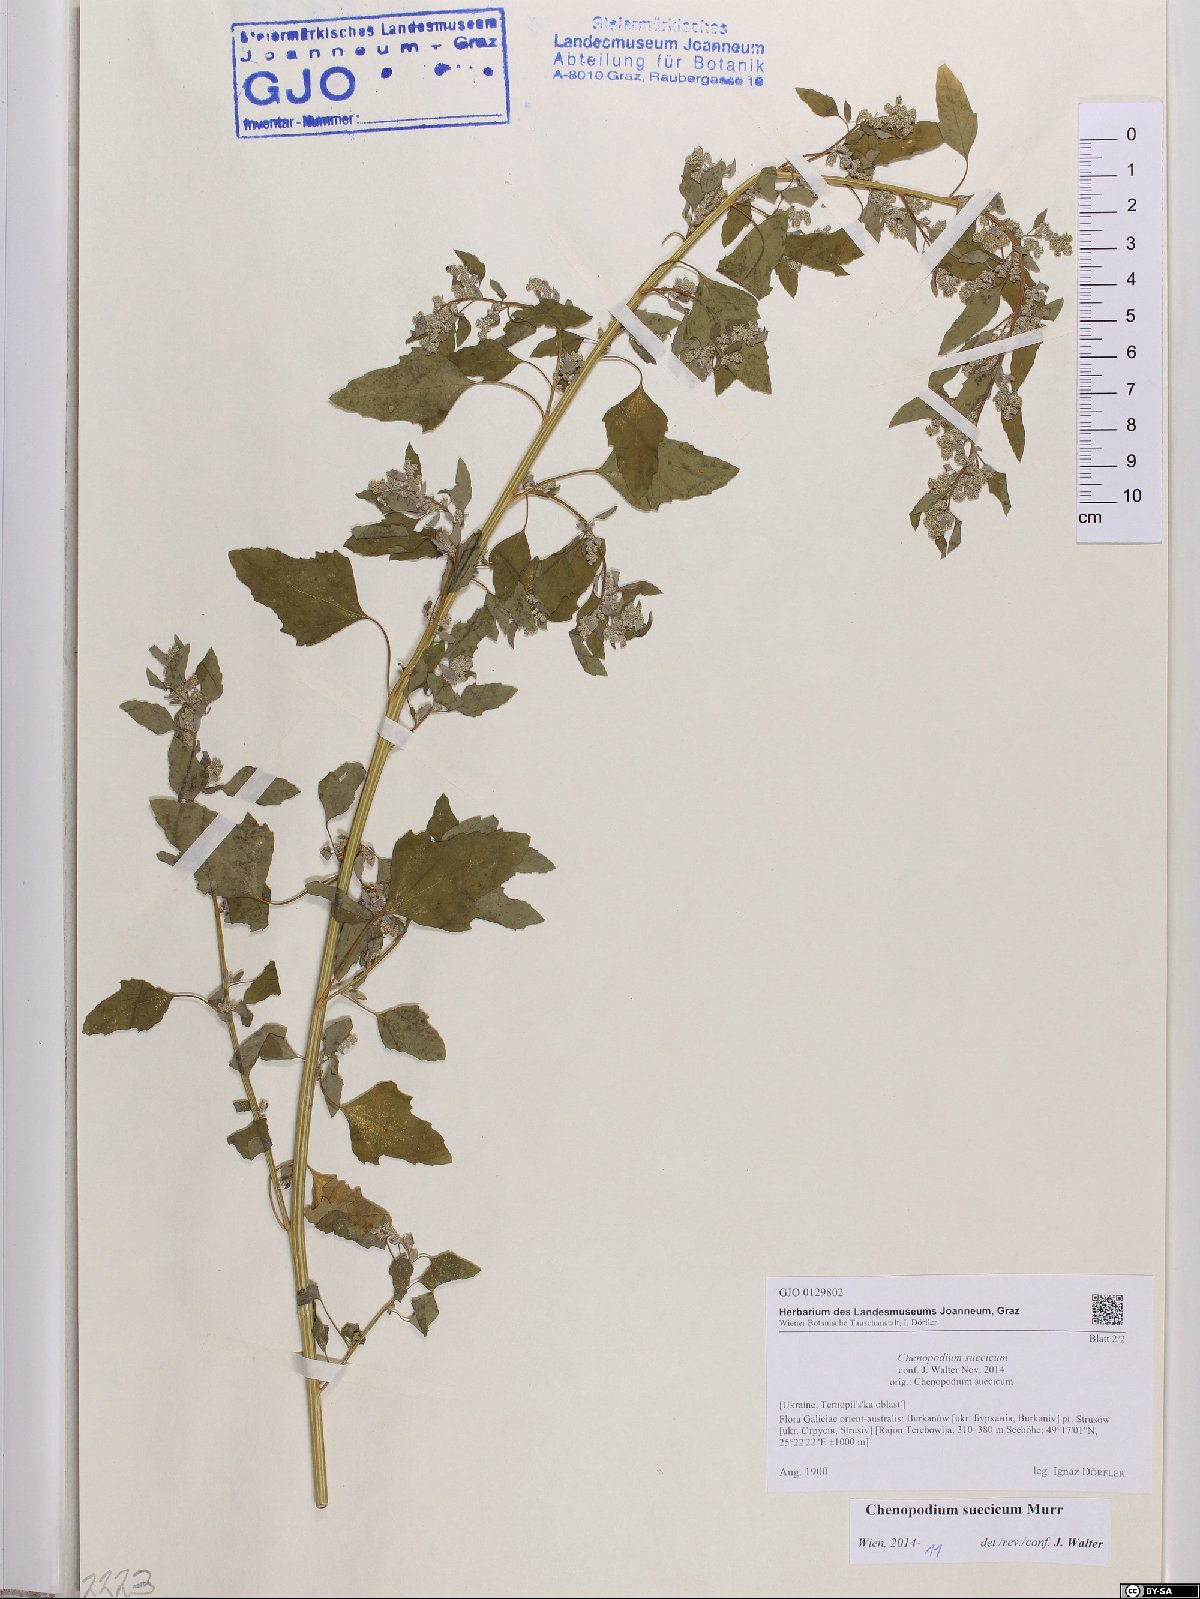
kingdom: Plantae
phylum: Tracheophyta
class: Magnoliopsida
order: Caryophyllales
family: Amaranthaceae
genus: Chenopodium
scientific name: Chenopodium suecicum
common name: Swedish goosefoot
